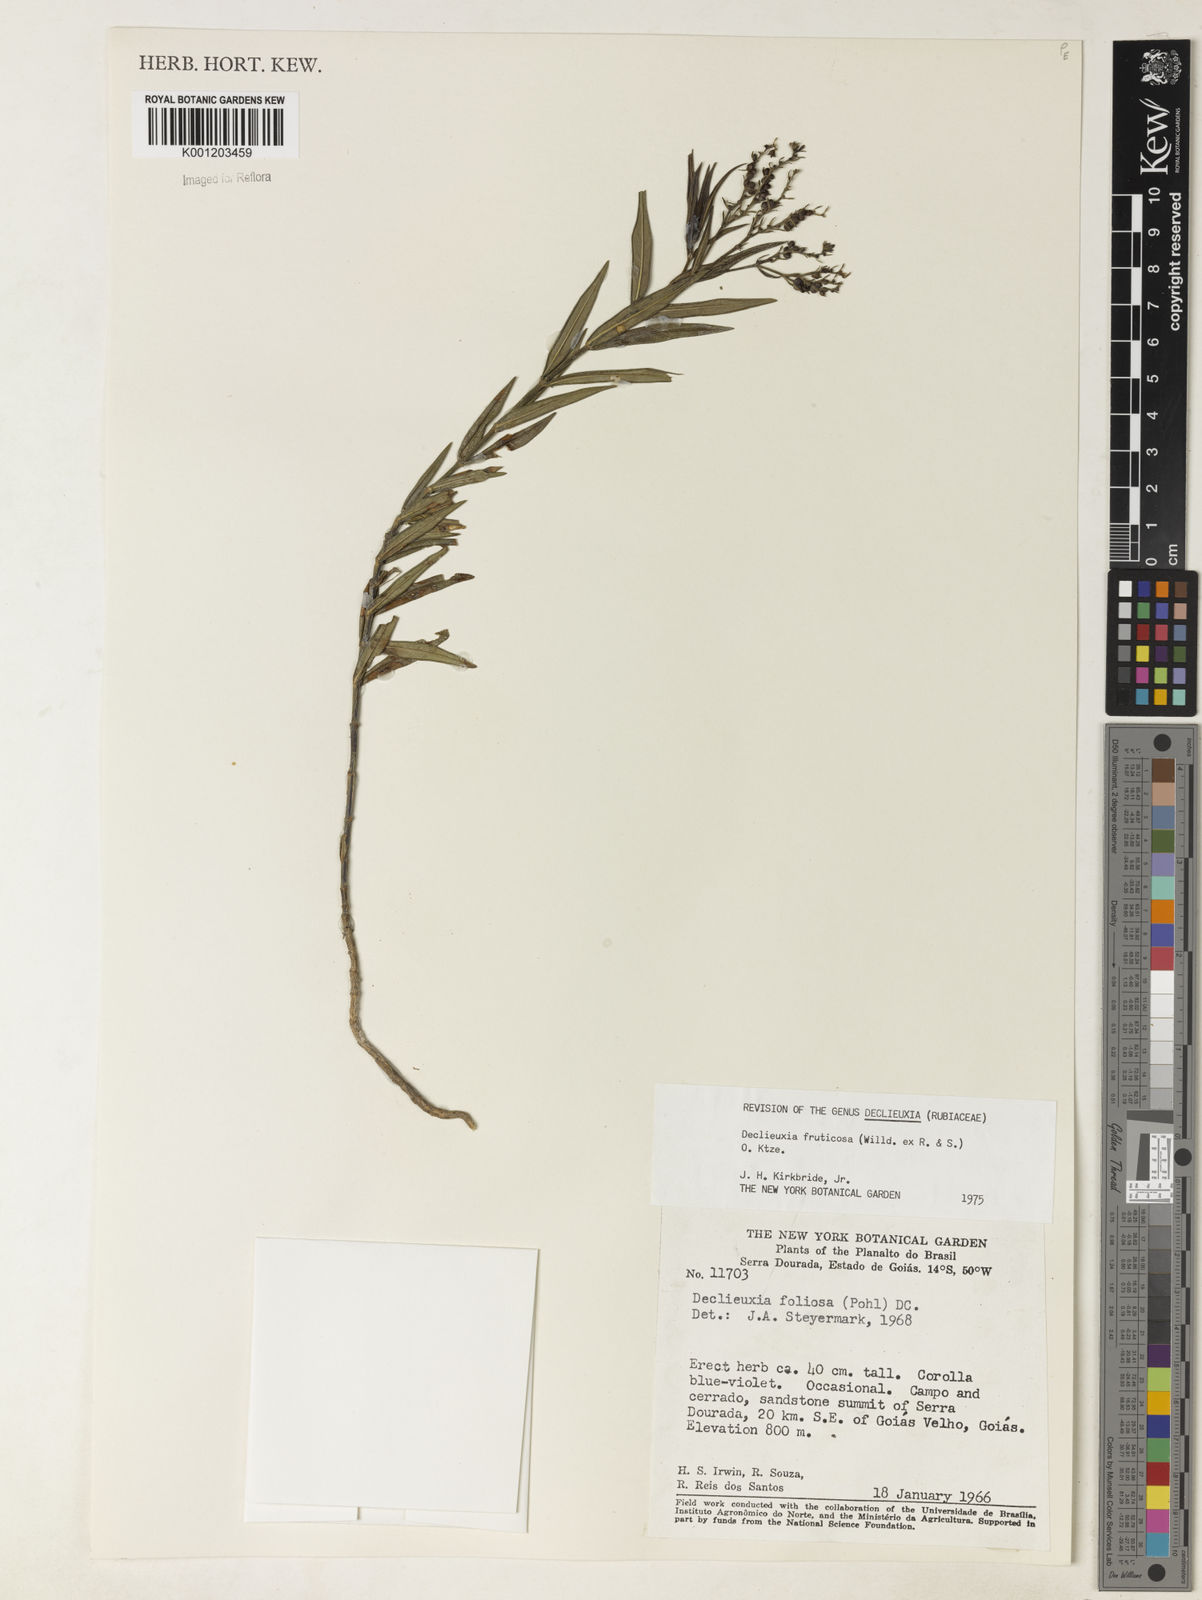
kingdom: Plantae
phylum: Tracheophyta
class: Magnoliopsida
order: Gentianales
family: Rubiaceae
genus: Declieuxia
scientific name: Declieuxia fruticosa
